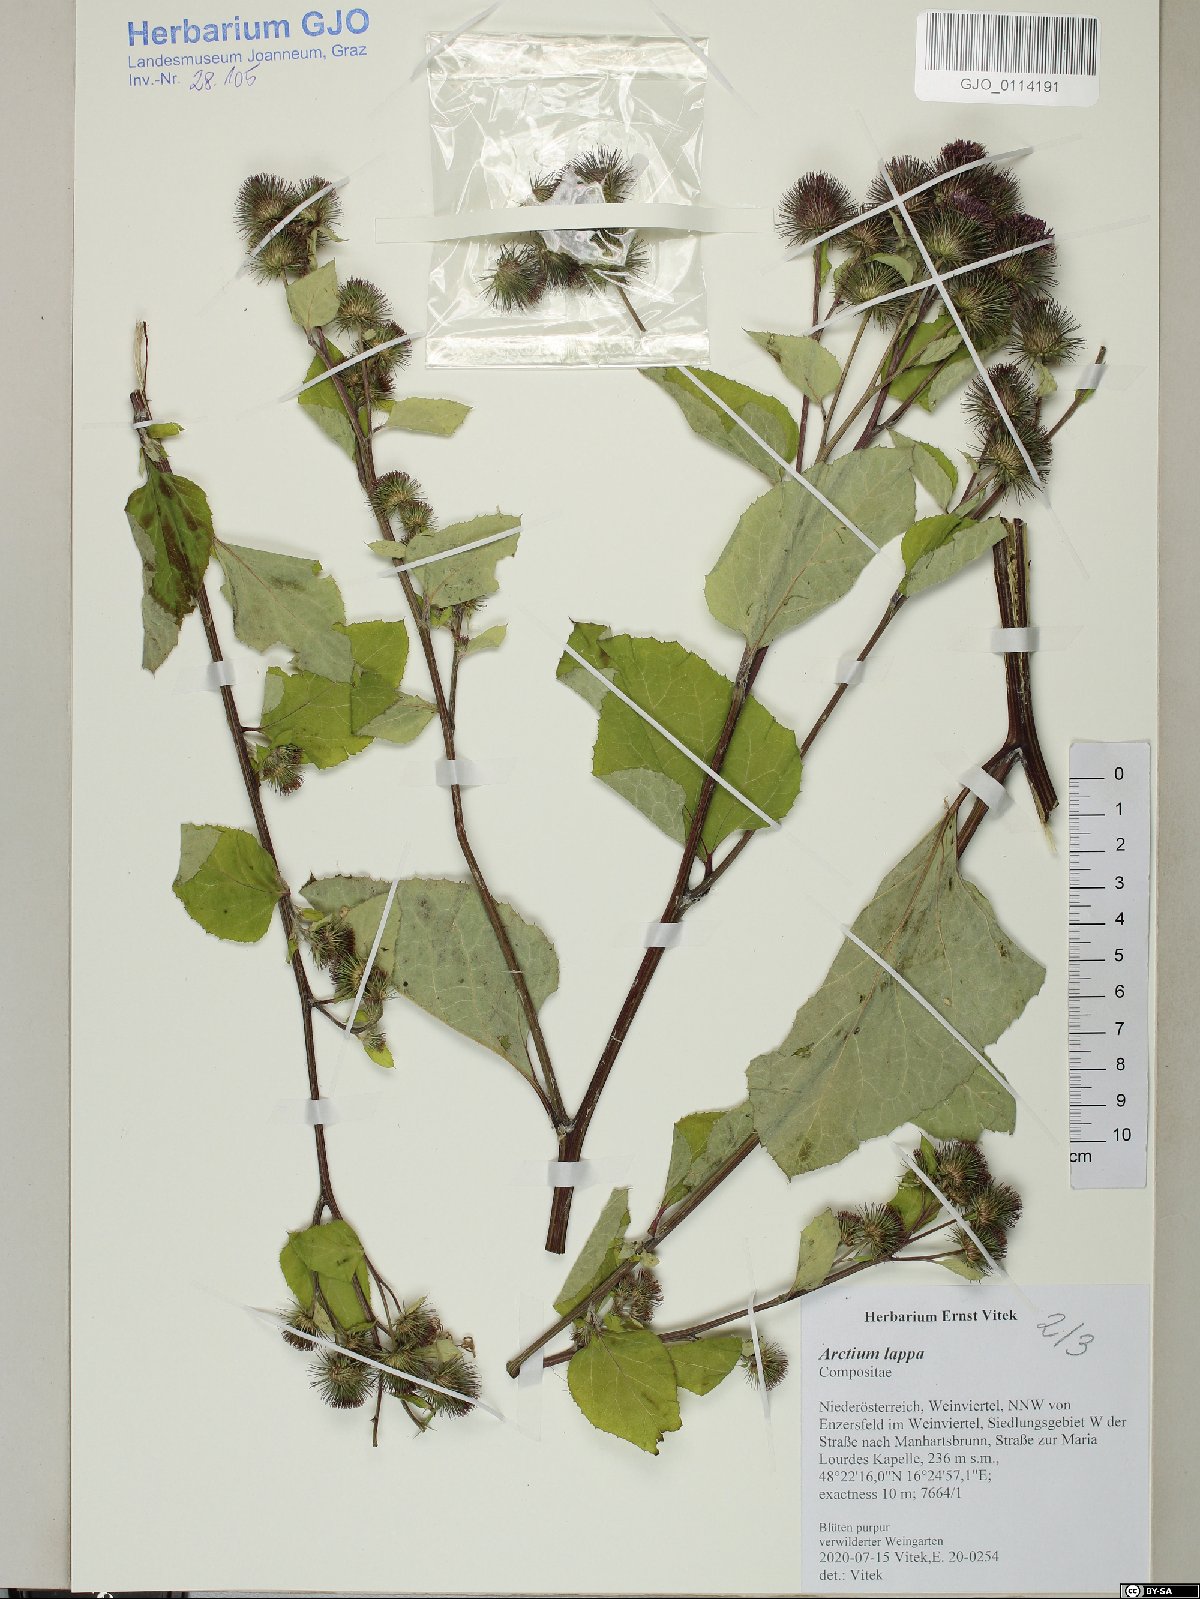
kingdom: Plantae
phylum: Tracheophyta
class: Magnoliopsida
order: Asterales
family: Asteraceae
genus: Arctium
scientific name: Arctium lappa
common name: Greater burdock
